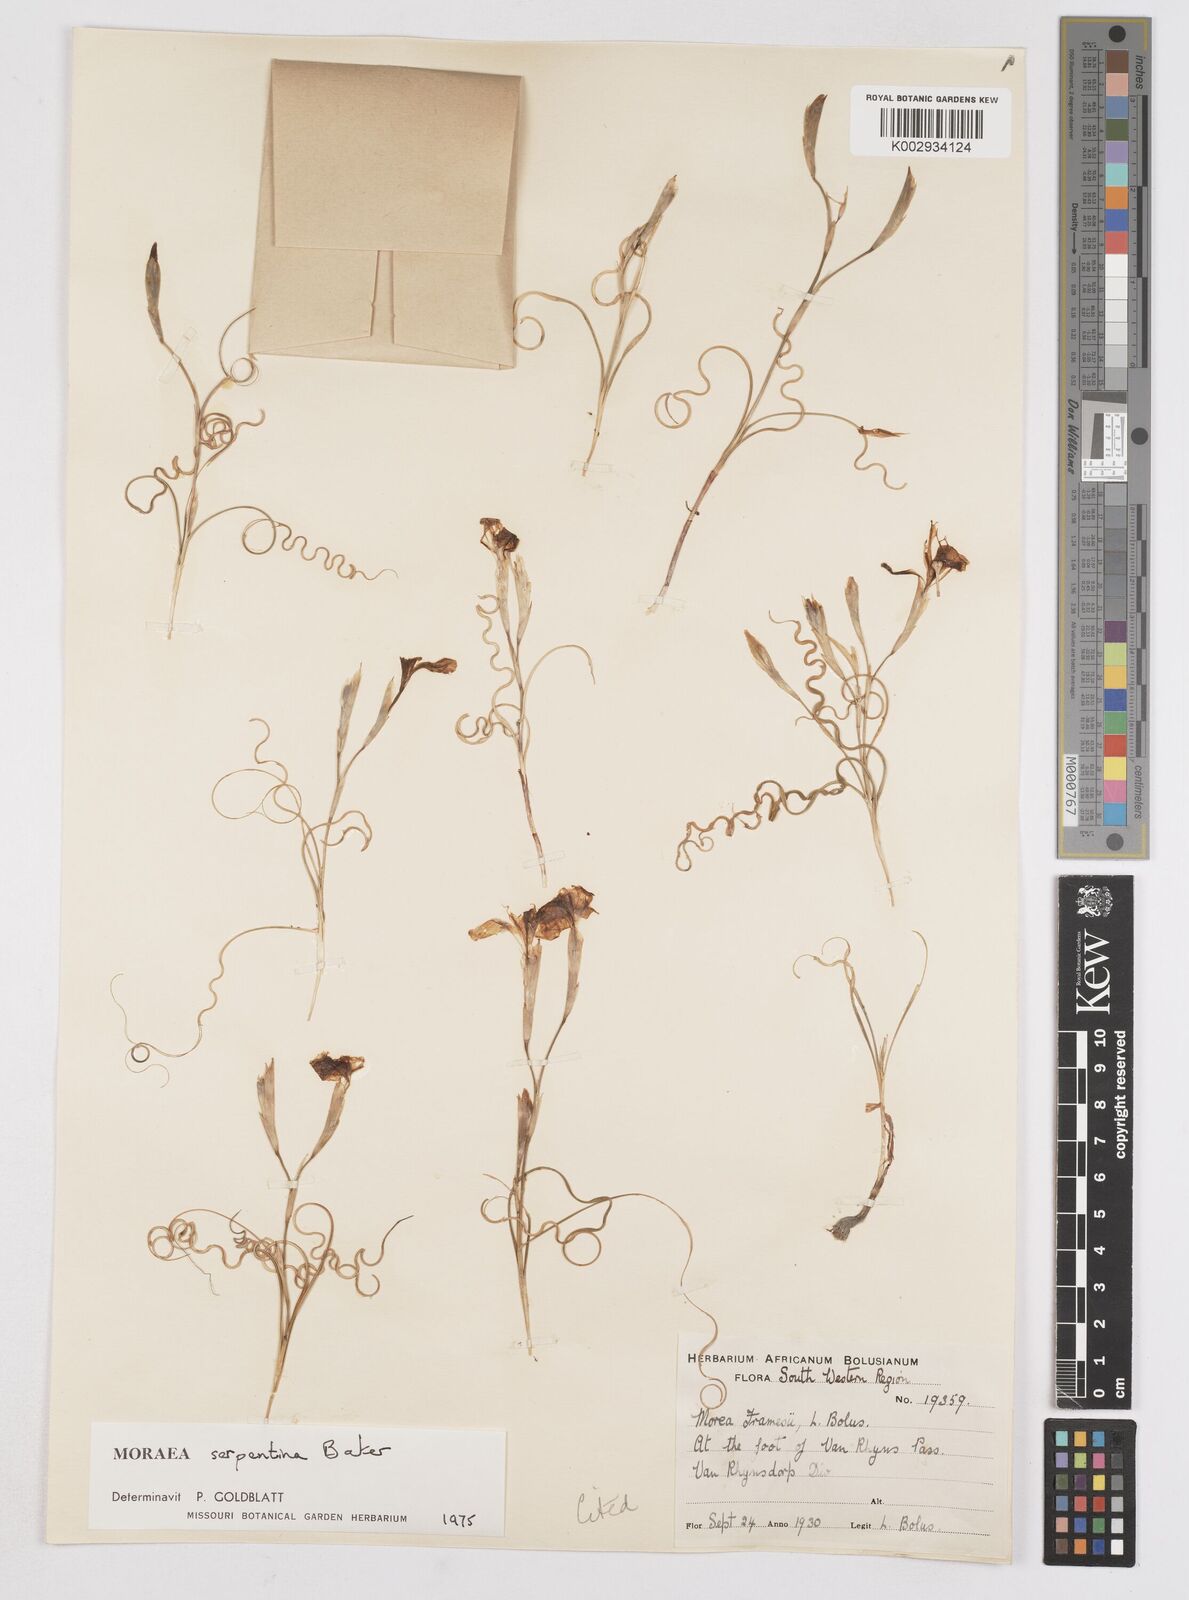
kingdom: Plantae
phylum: Tracheophyta
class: Liliopsida
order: Asparagales
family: Iridaceae
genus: Moraea
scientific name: Moraea serpentina
